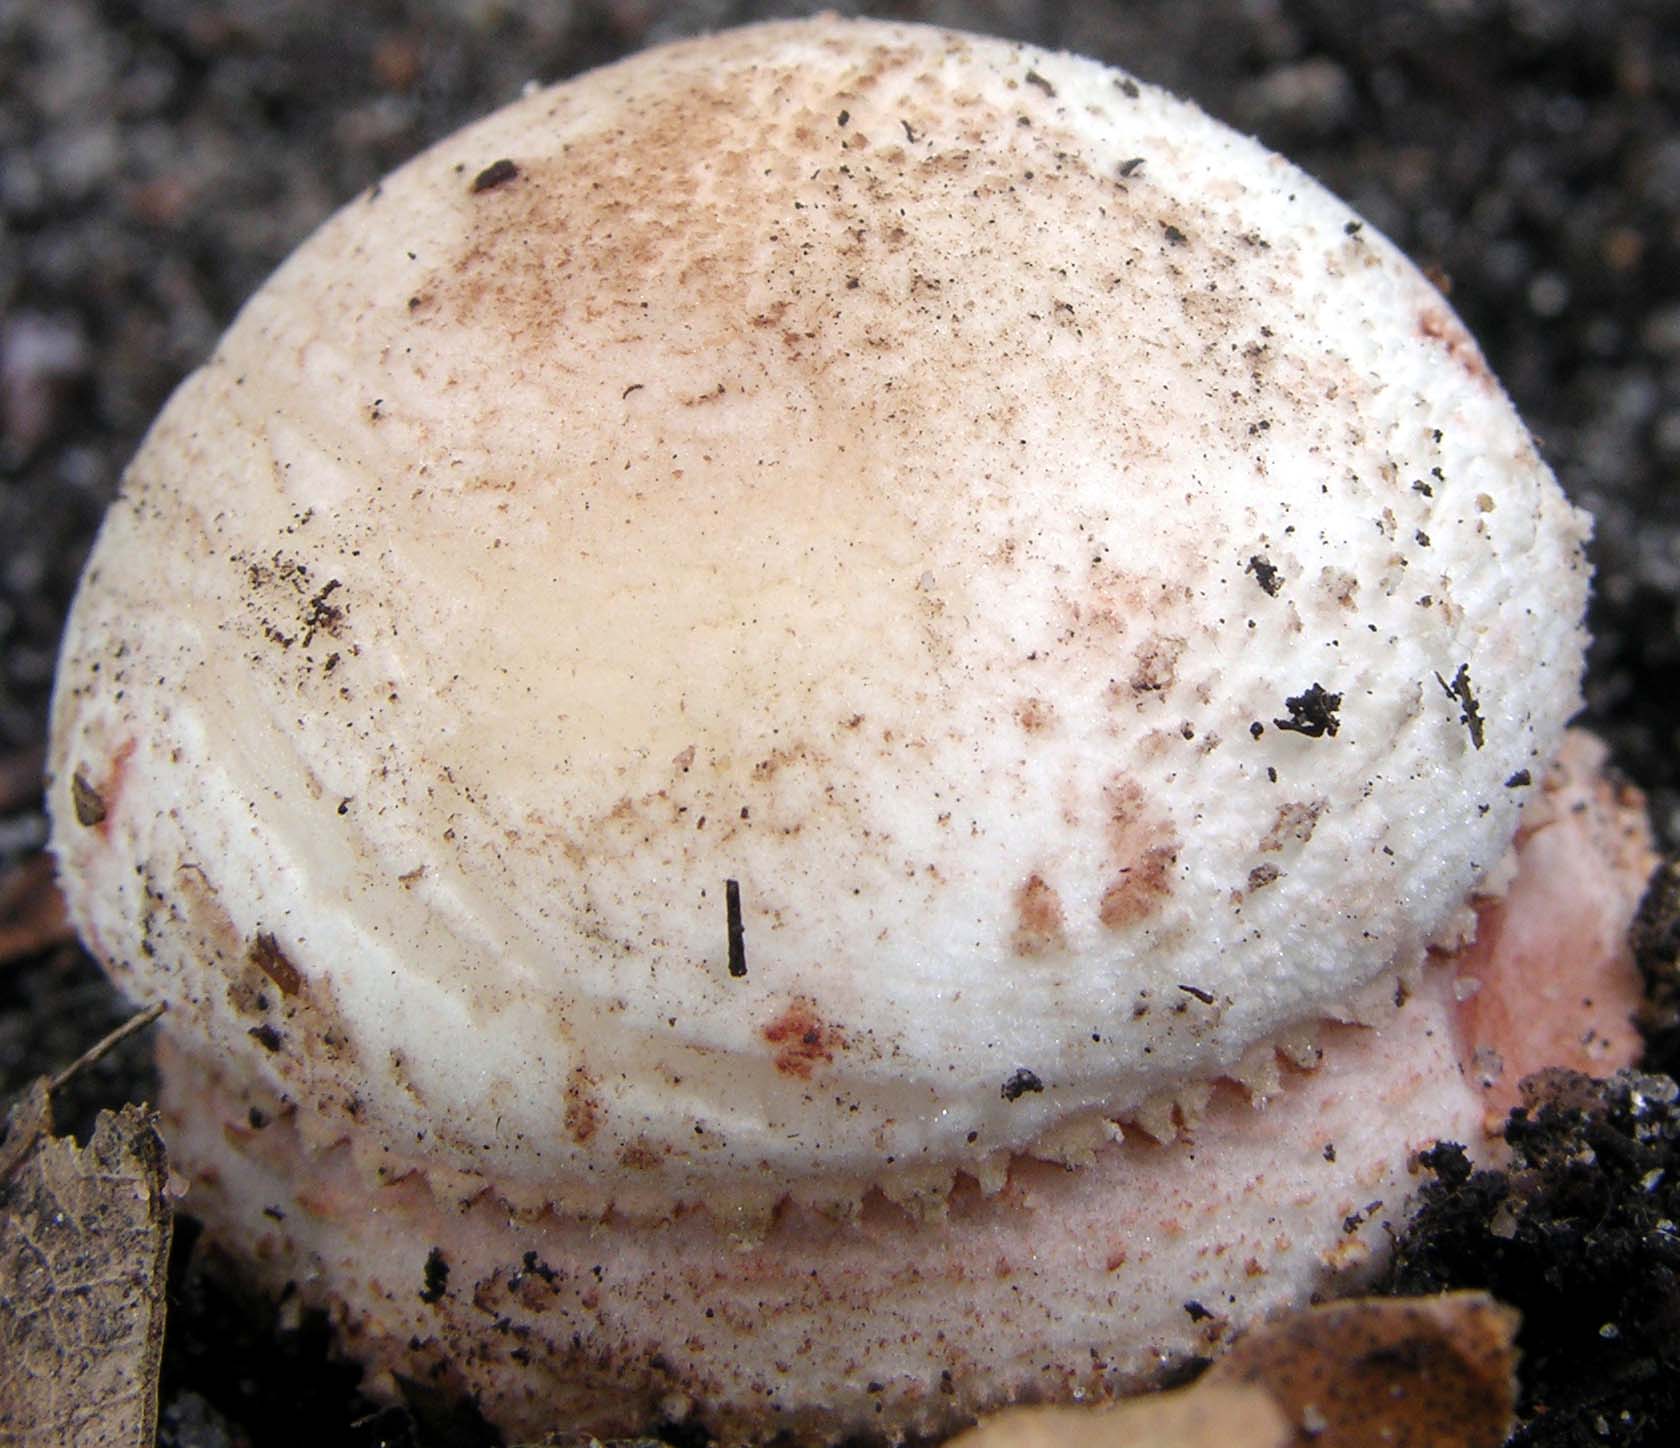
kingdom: Fungi
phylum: Basidiomycota
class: Agaricomycetes
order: Agaricales
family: Amanitaceae
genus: Amanita
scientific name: Amanita rubescens
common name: rødmende fluesvamp
